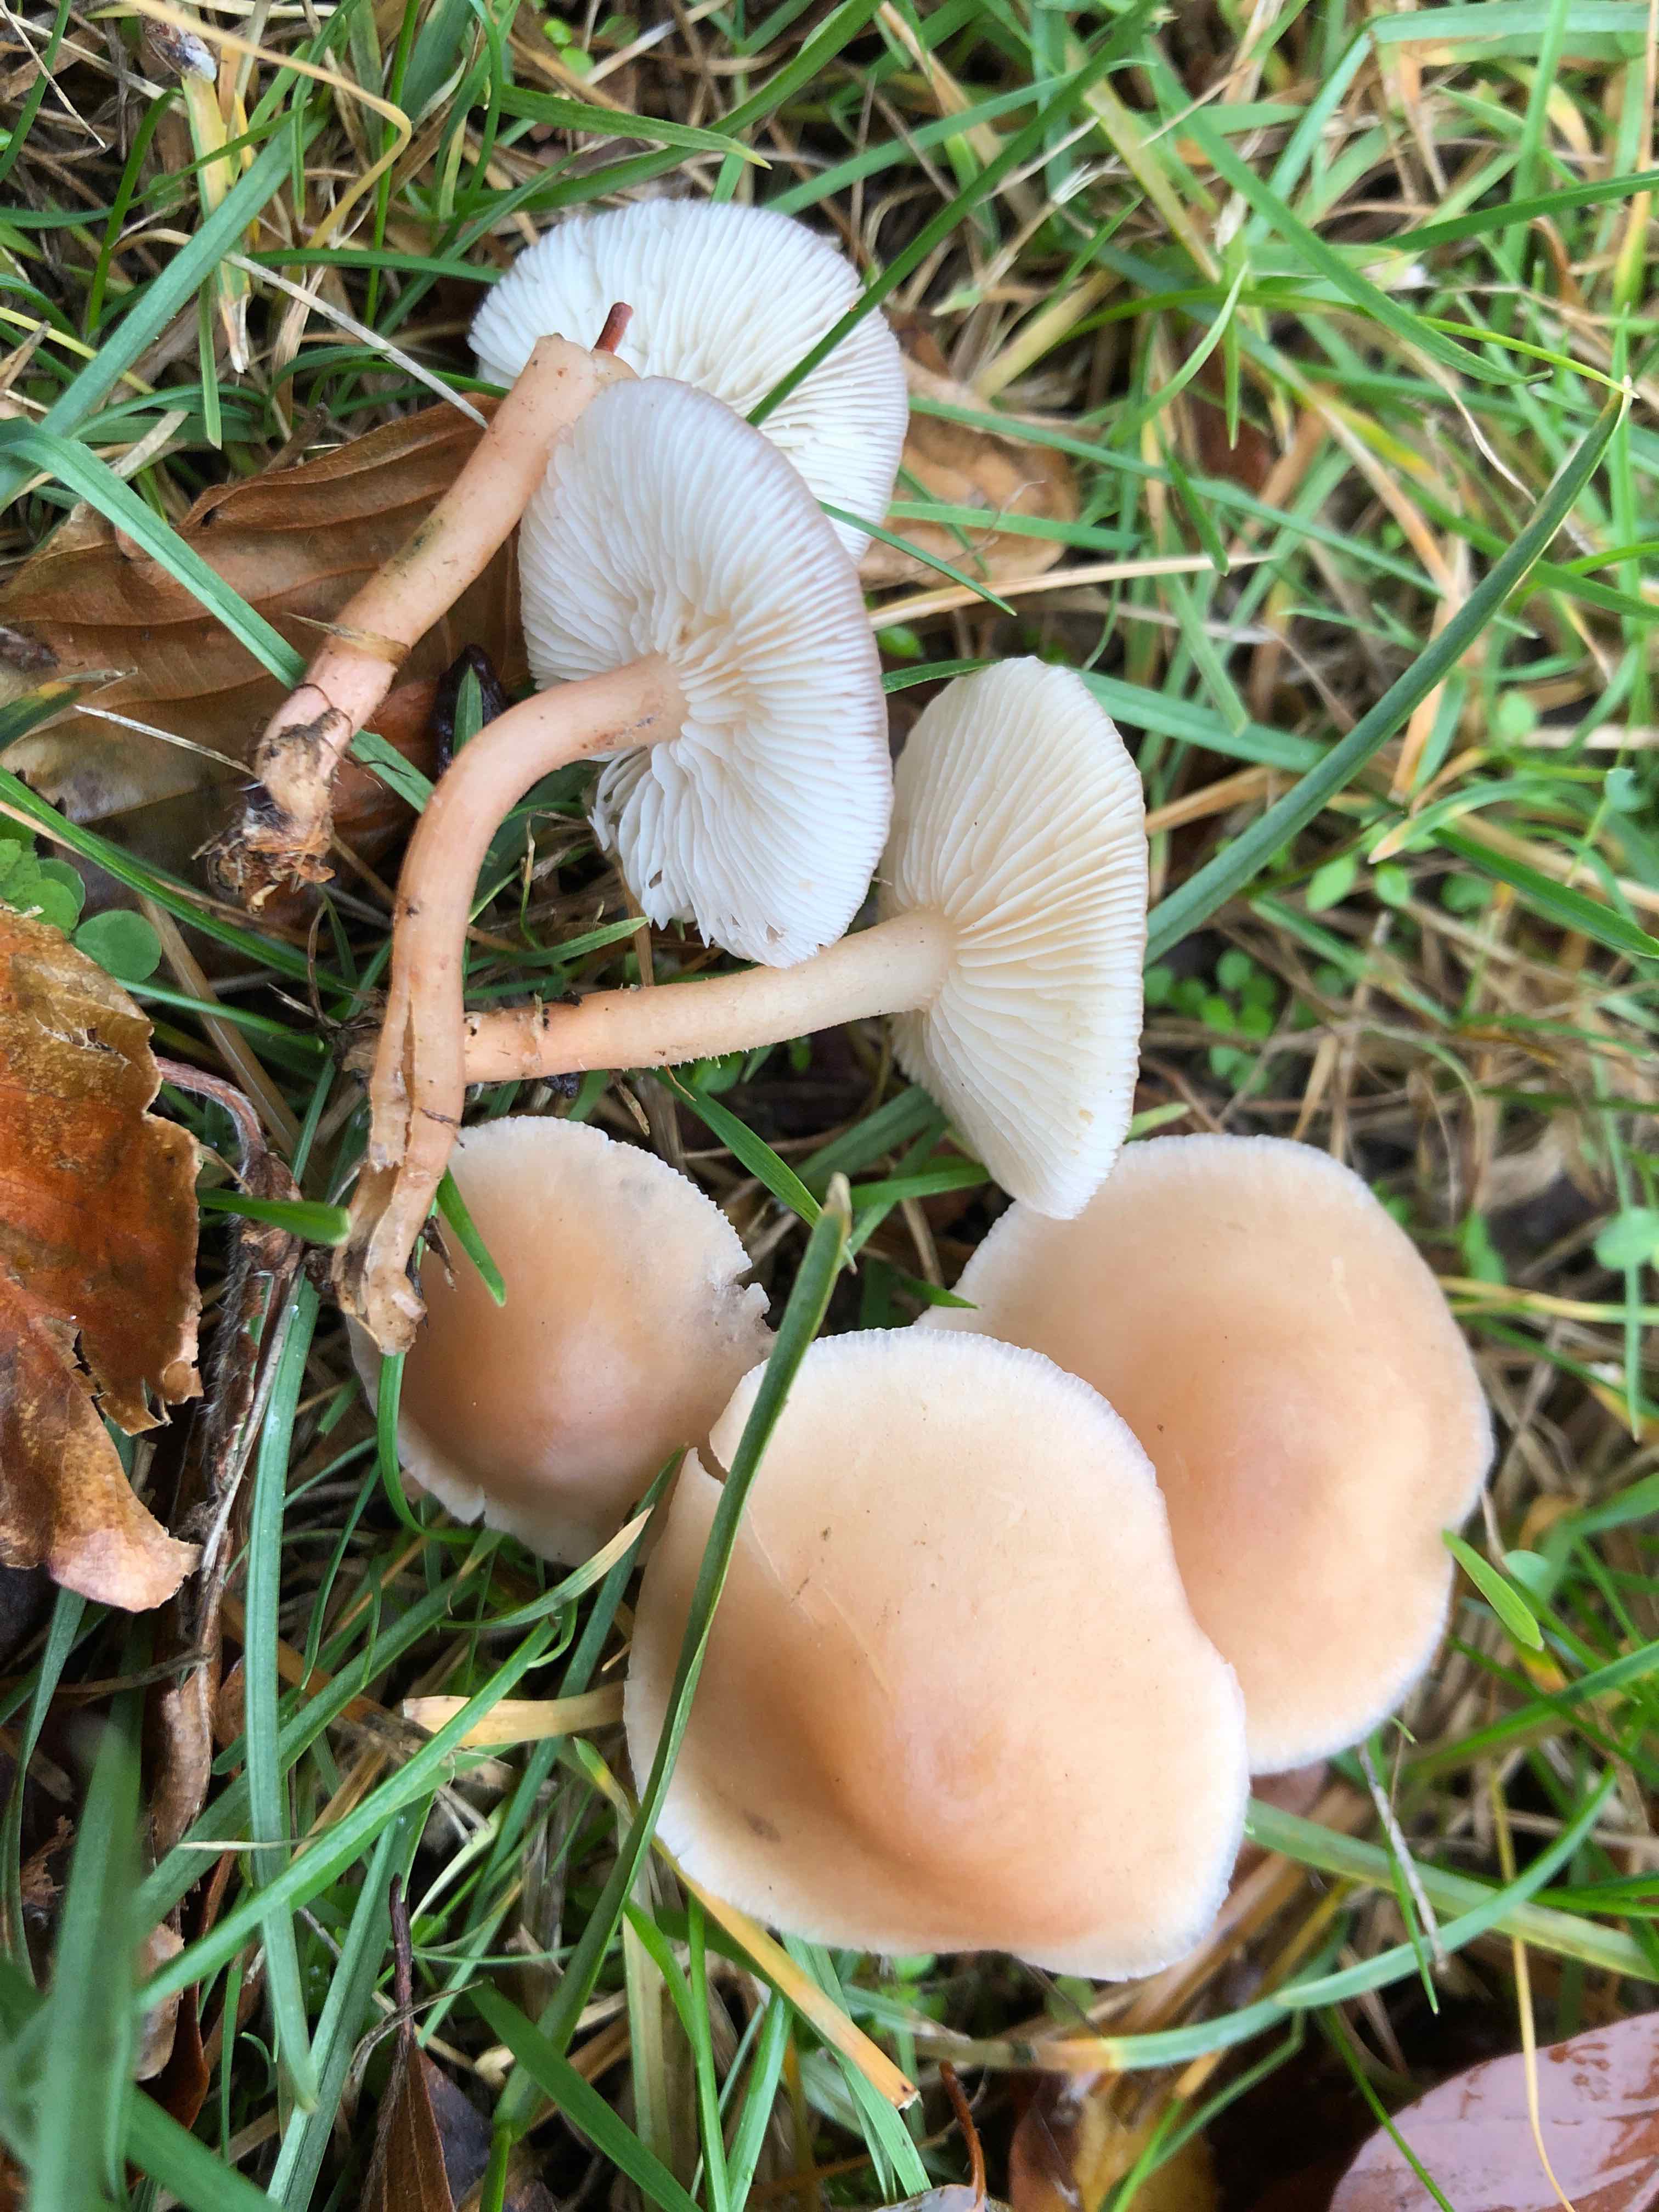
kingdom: Fungi
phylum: Basidiomycota
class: Agaricomycetes
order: Agaricales
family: Lyophyllaceae
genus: Calocybe
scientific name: Calocybe carnea
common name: rosa fagerhat
